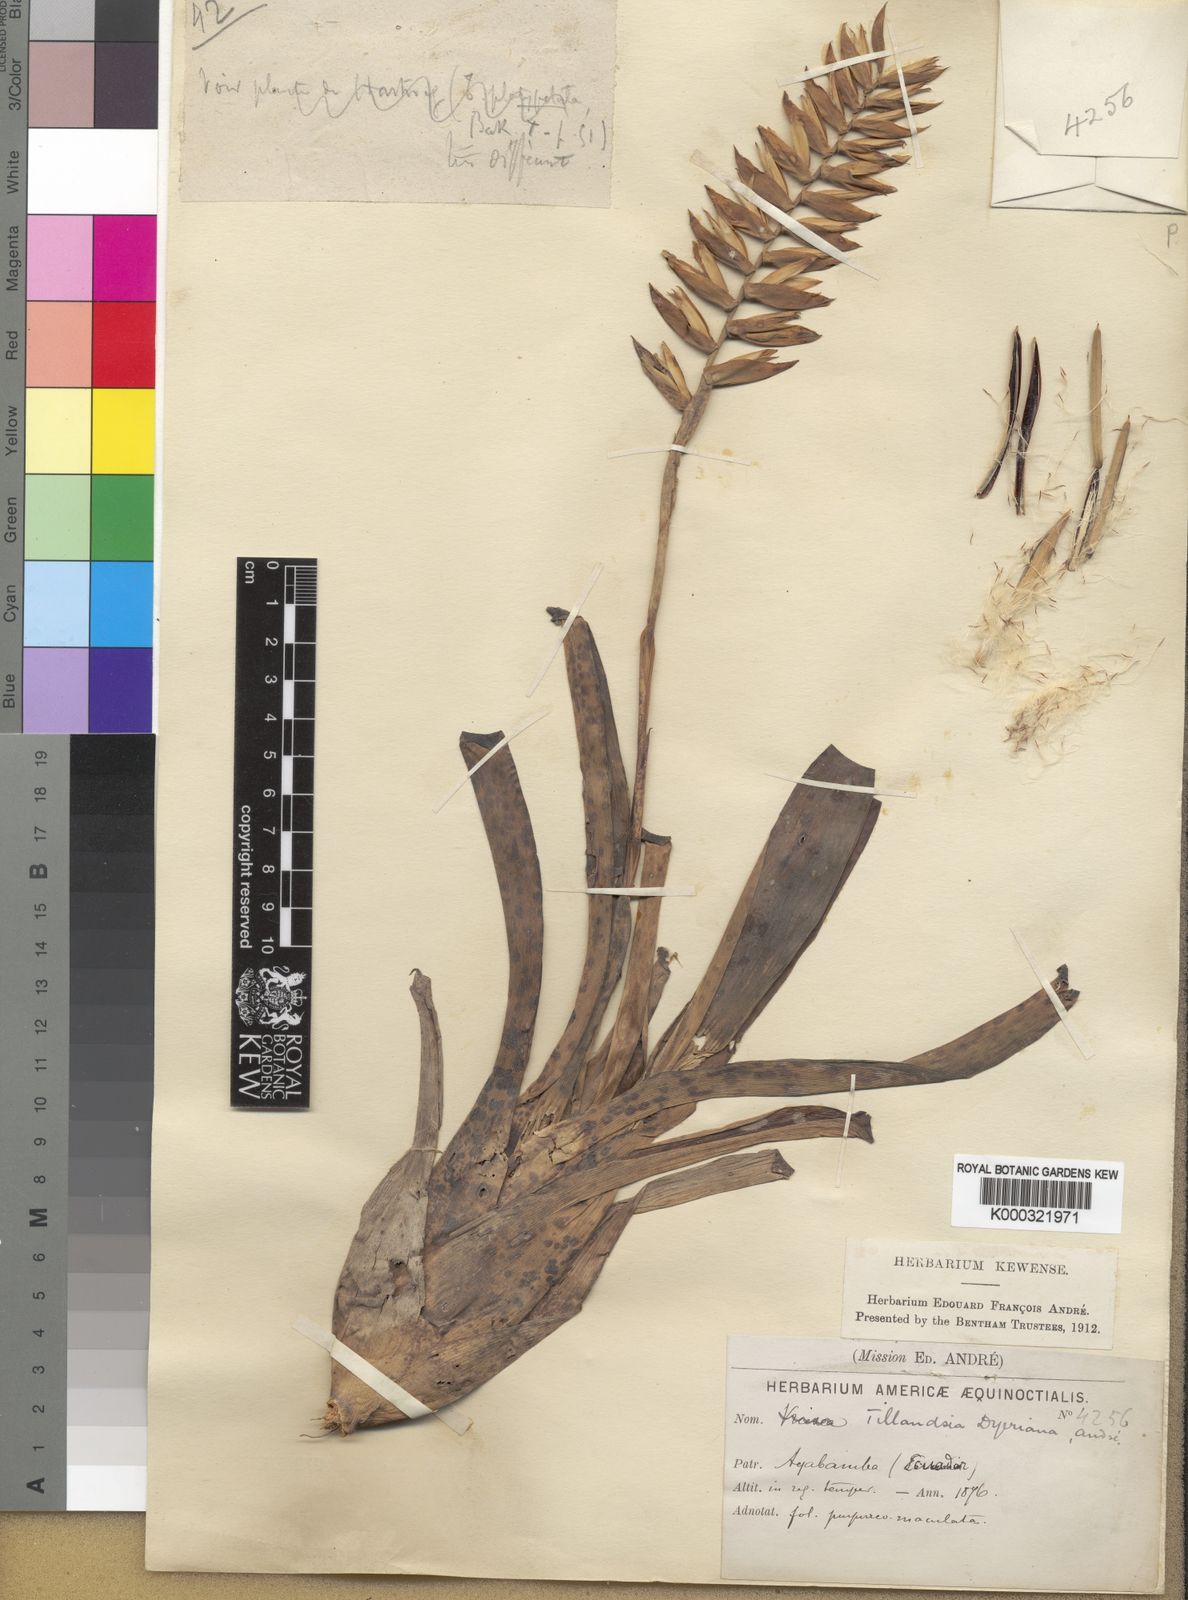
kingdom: Plantae
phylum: Tracheophyta
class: Liliopsida
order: Poales
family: Bromeliaceae
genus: Tillandsia
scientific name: Tillandsia
